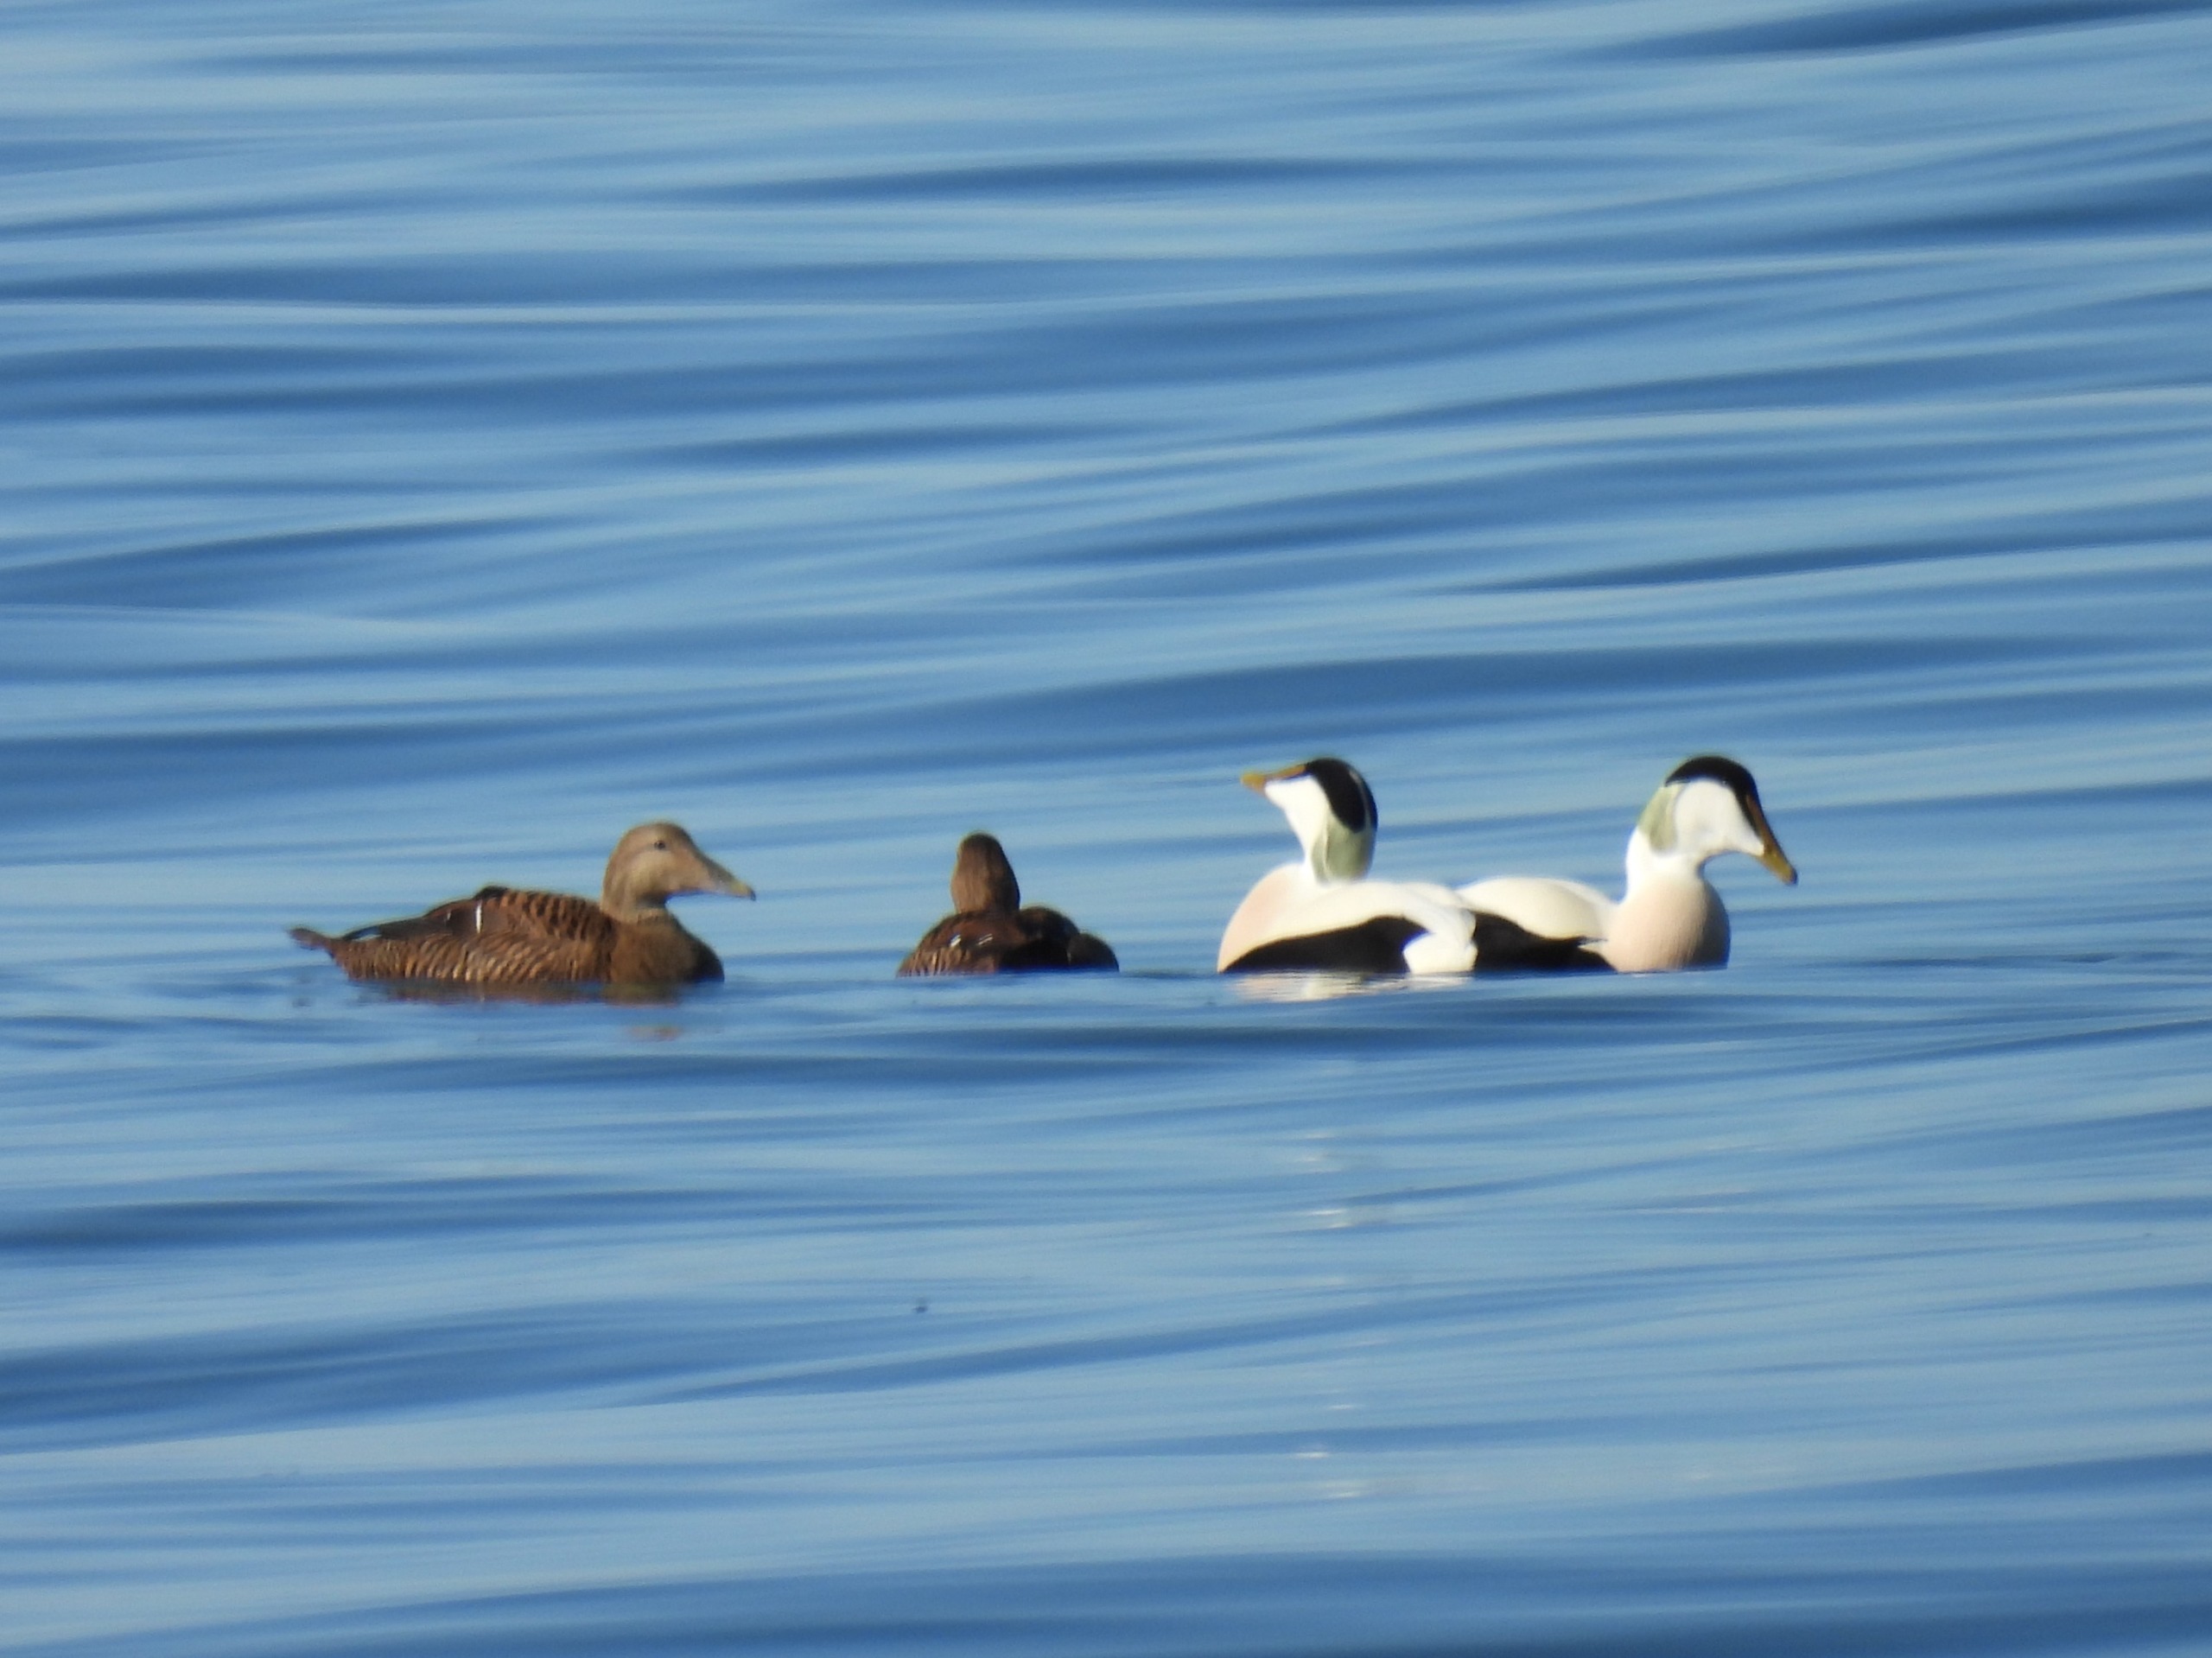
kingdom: Animalia
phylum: Chordata
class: Aves
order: Anseriformes
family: Anatidae
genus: Somateria
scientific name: Somateria mollissima
